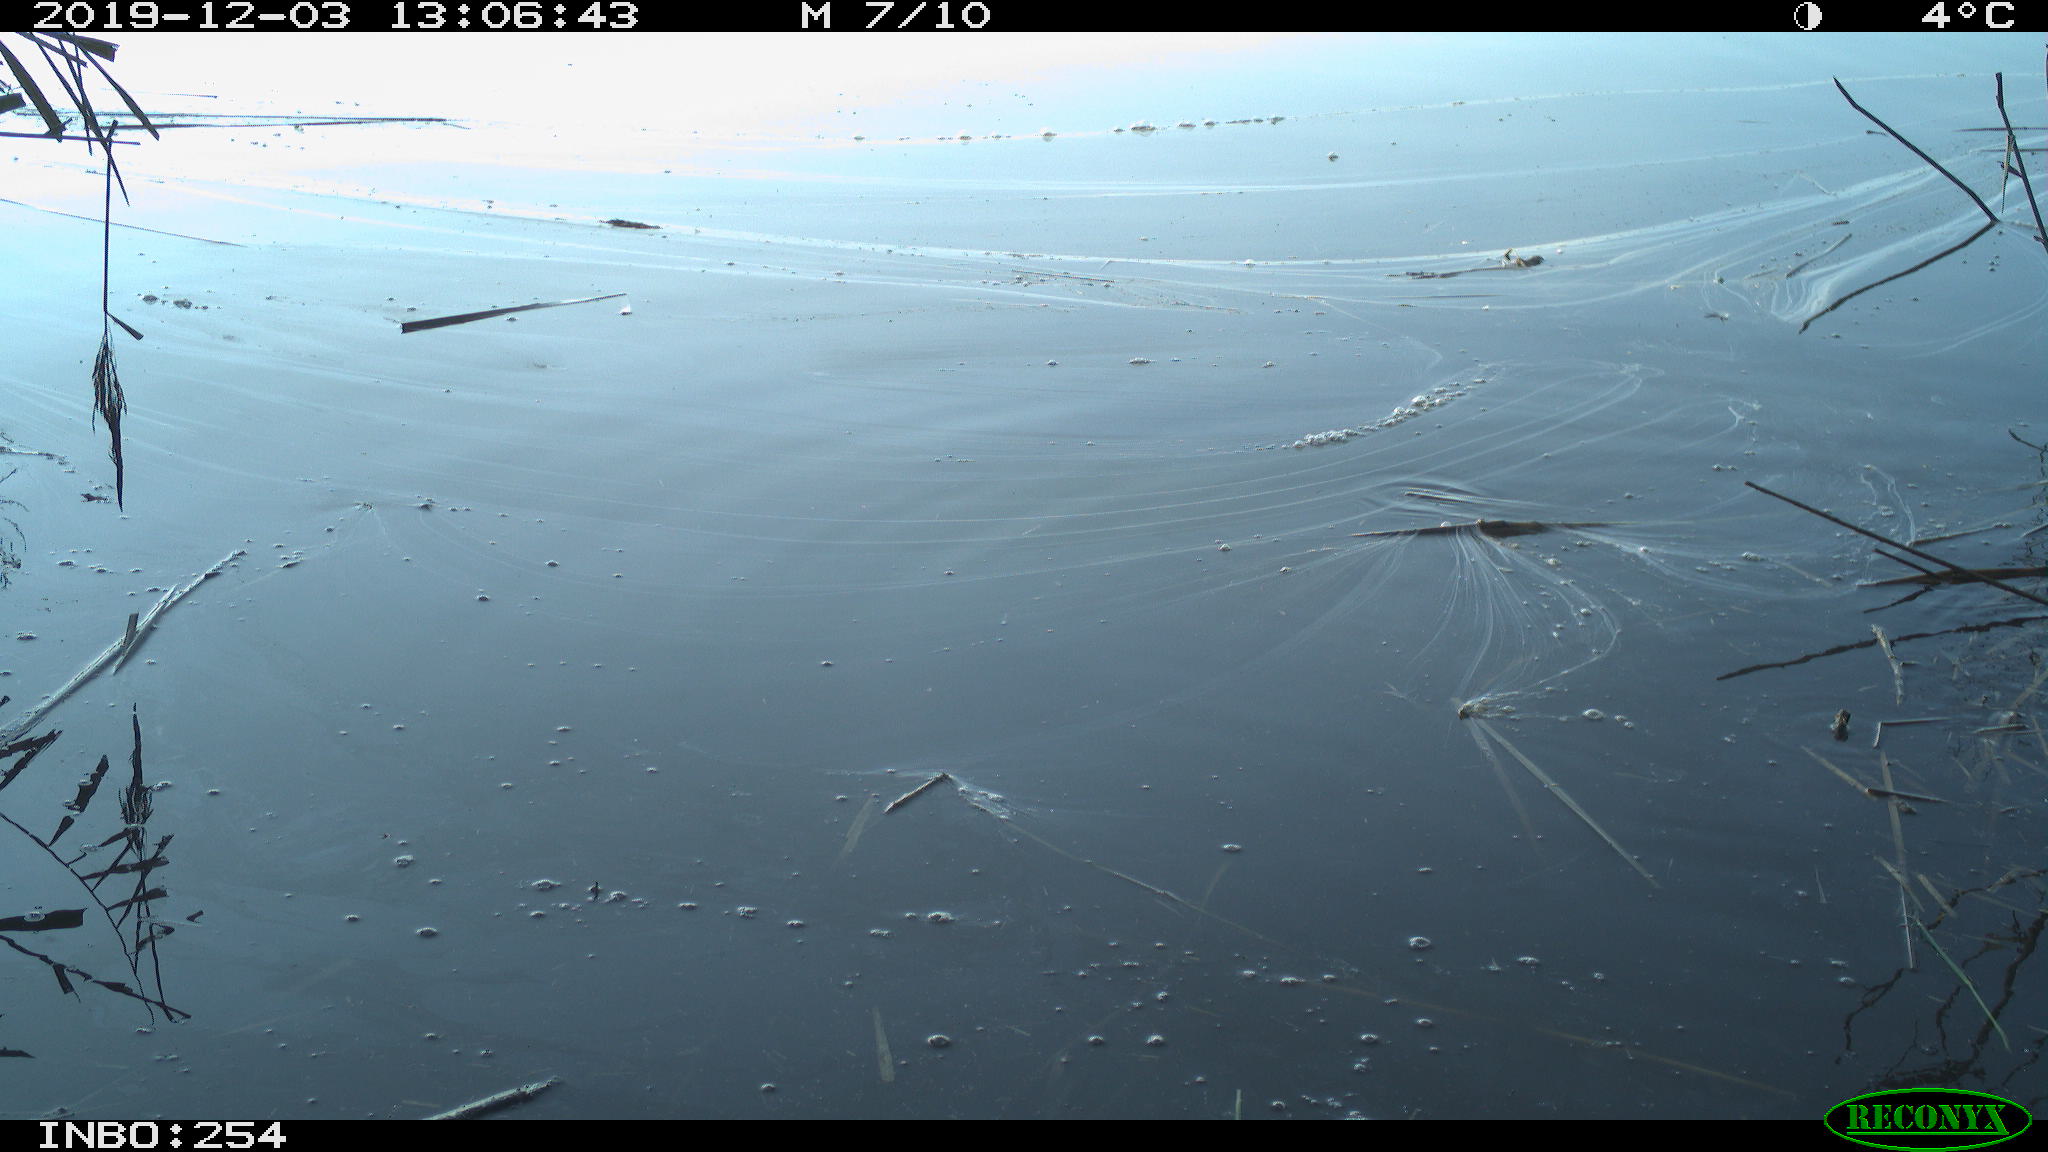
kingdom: Animalia
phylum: Chordata
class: Aves
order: Gruiformes
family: Rallidae
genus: Gallinula
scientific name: Gallinula chloropus
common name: Common moorhen
